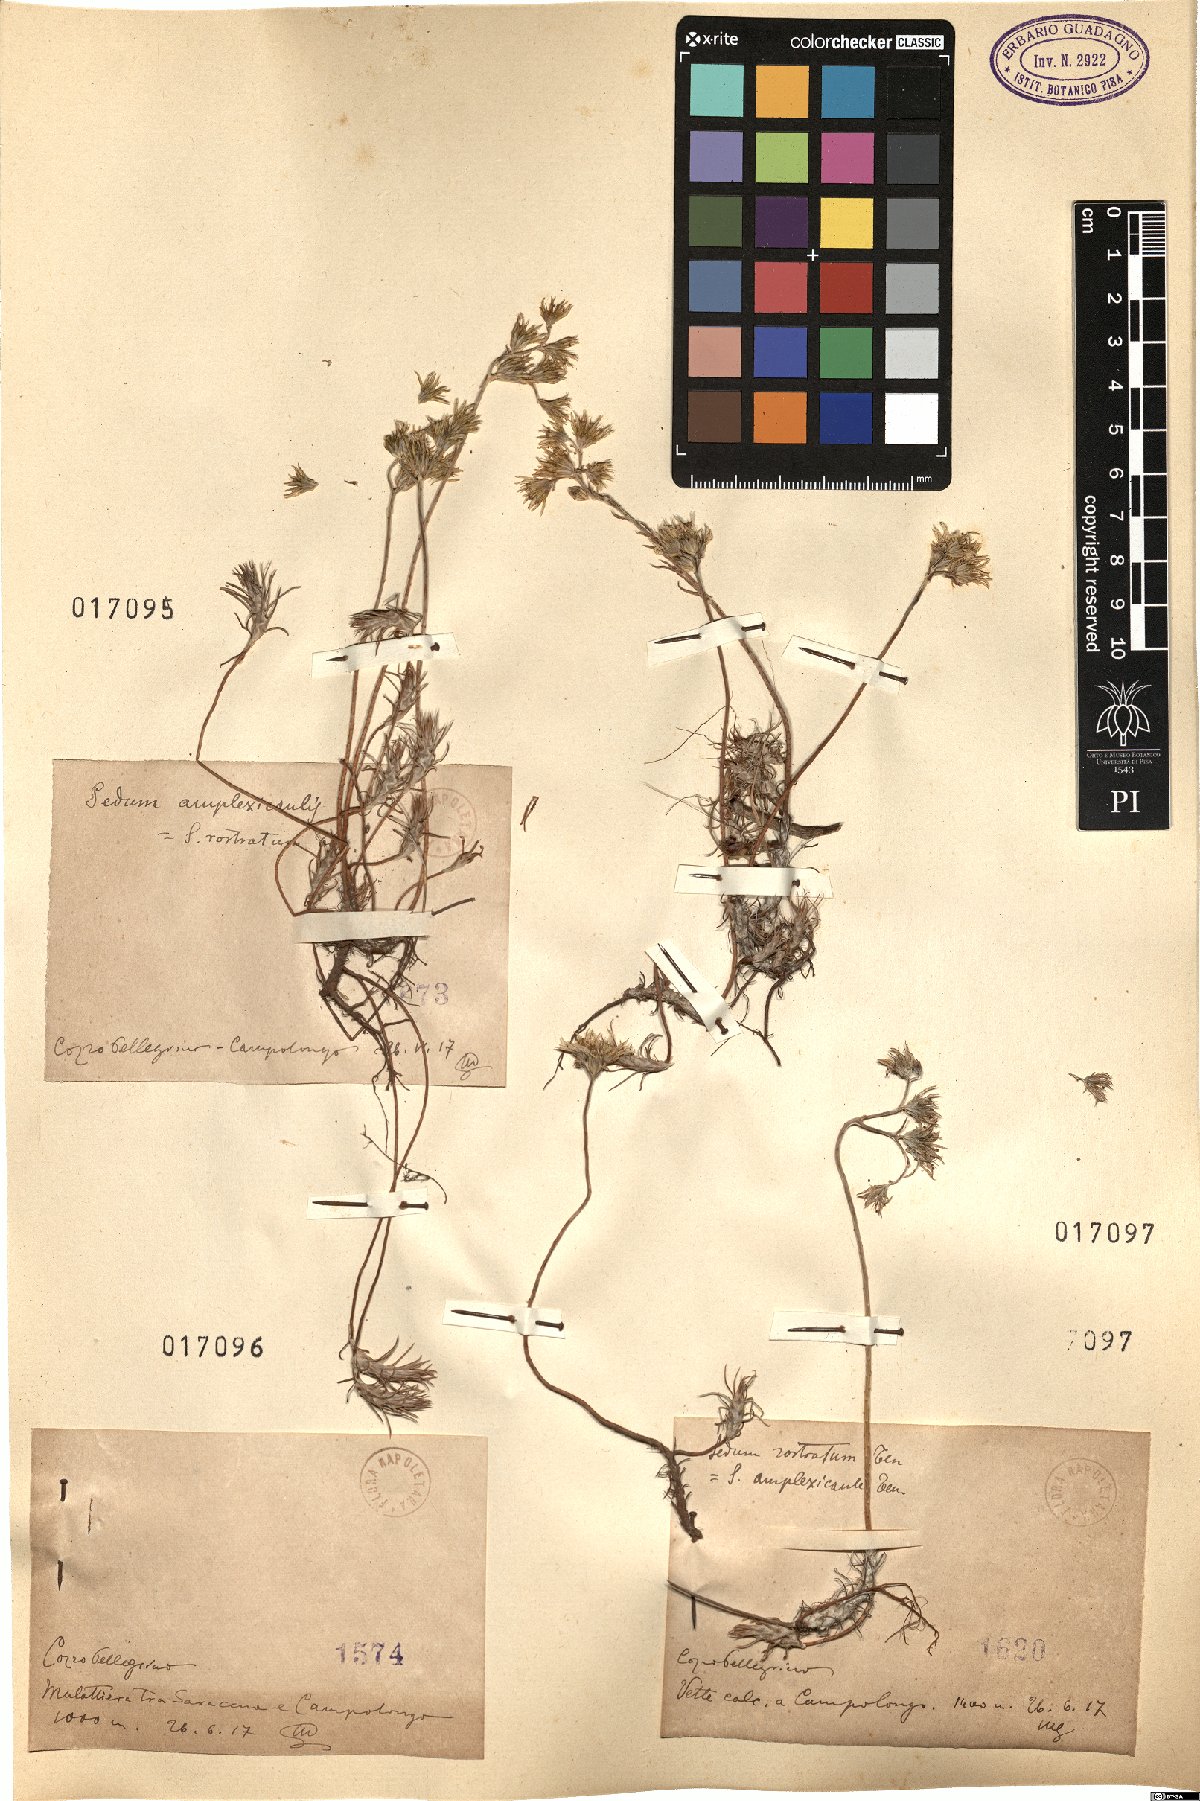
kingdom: Plantae
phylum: Tracheophyta
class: Magnoliopsida
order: Saxifragales
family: Crassulaceae
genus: Petrosedum
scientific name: Petrosedum amplexicaule
